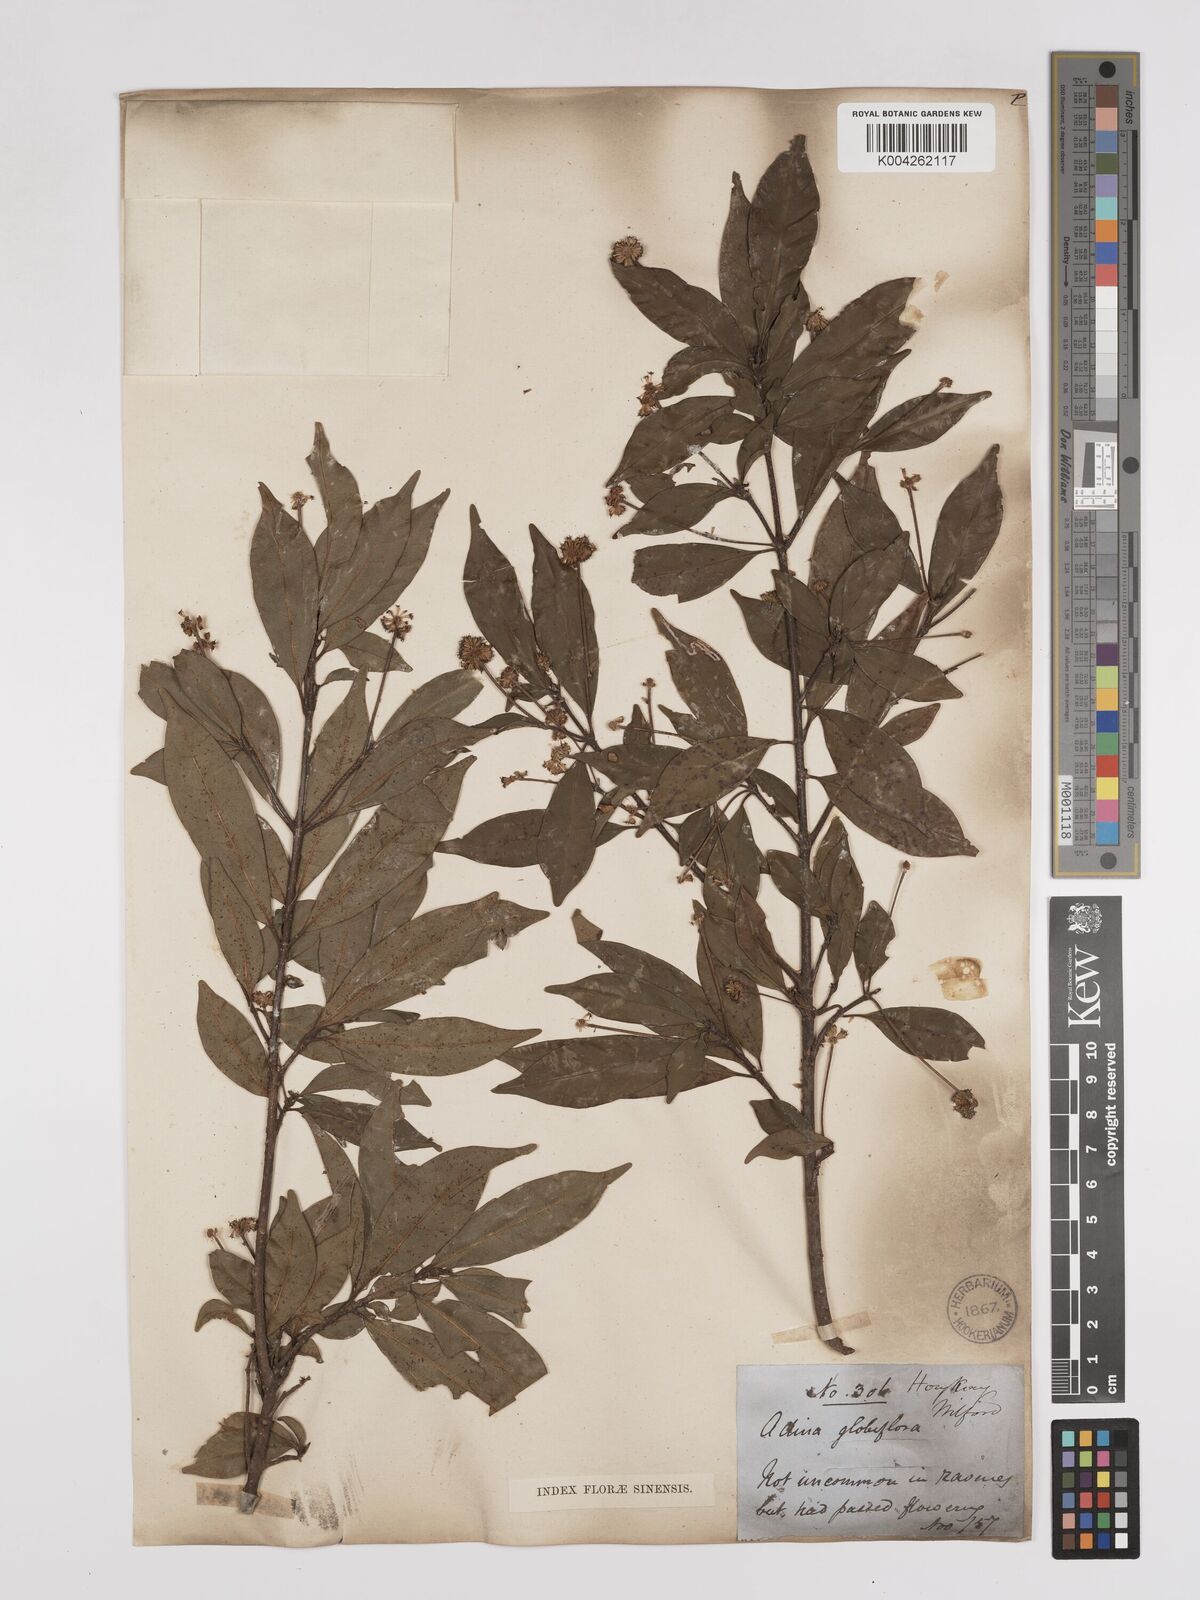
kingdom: Plantae
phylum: Tracheophyta
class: Magnoliopsida
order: Gentianales
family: Rubiaceae
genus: Adina
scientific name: Adina pilulifera
